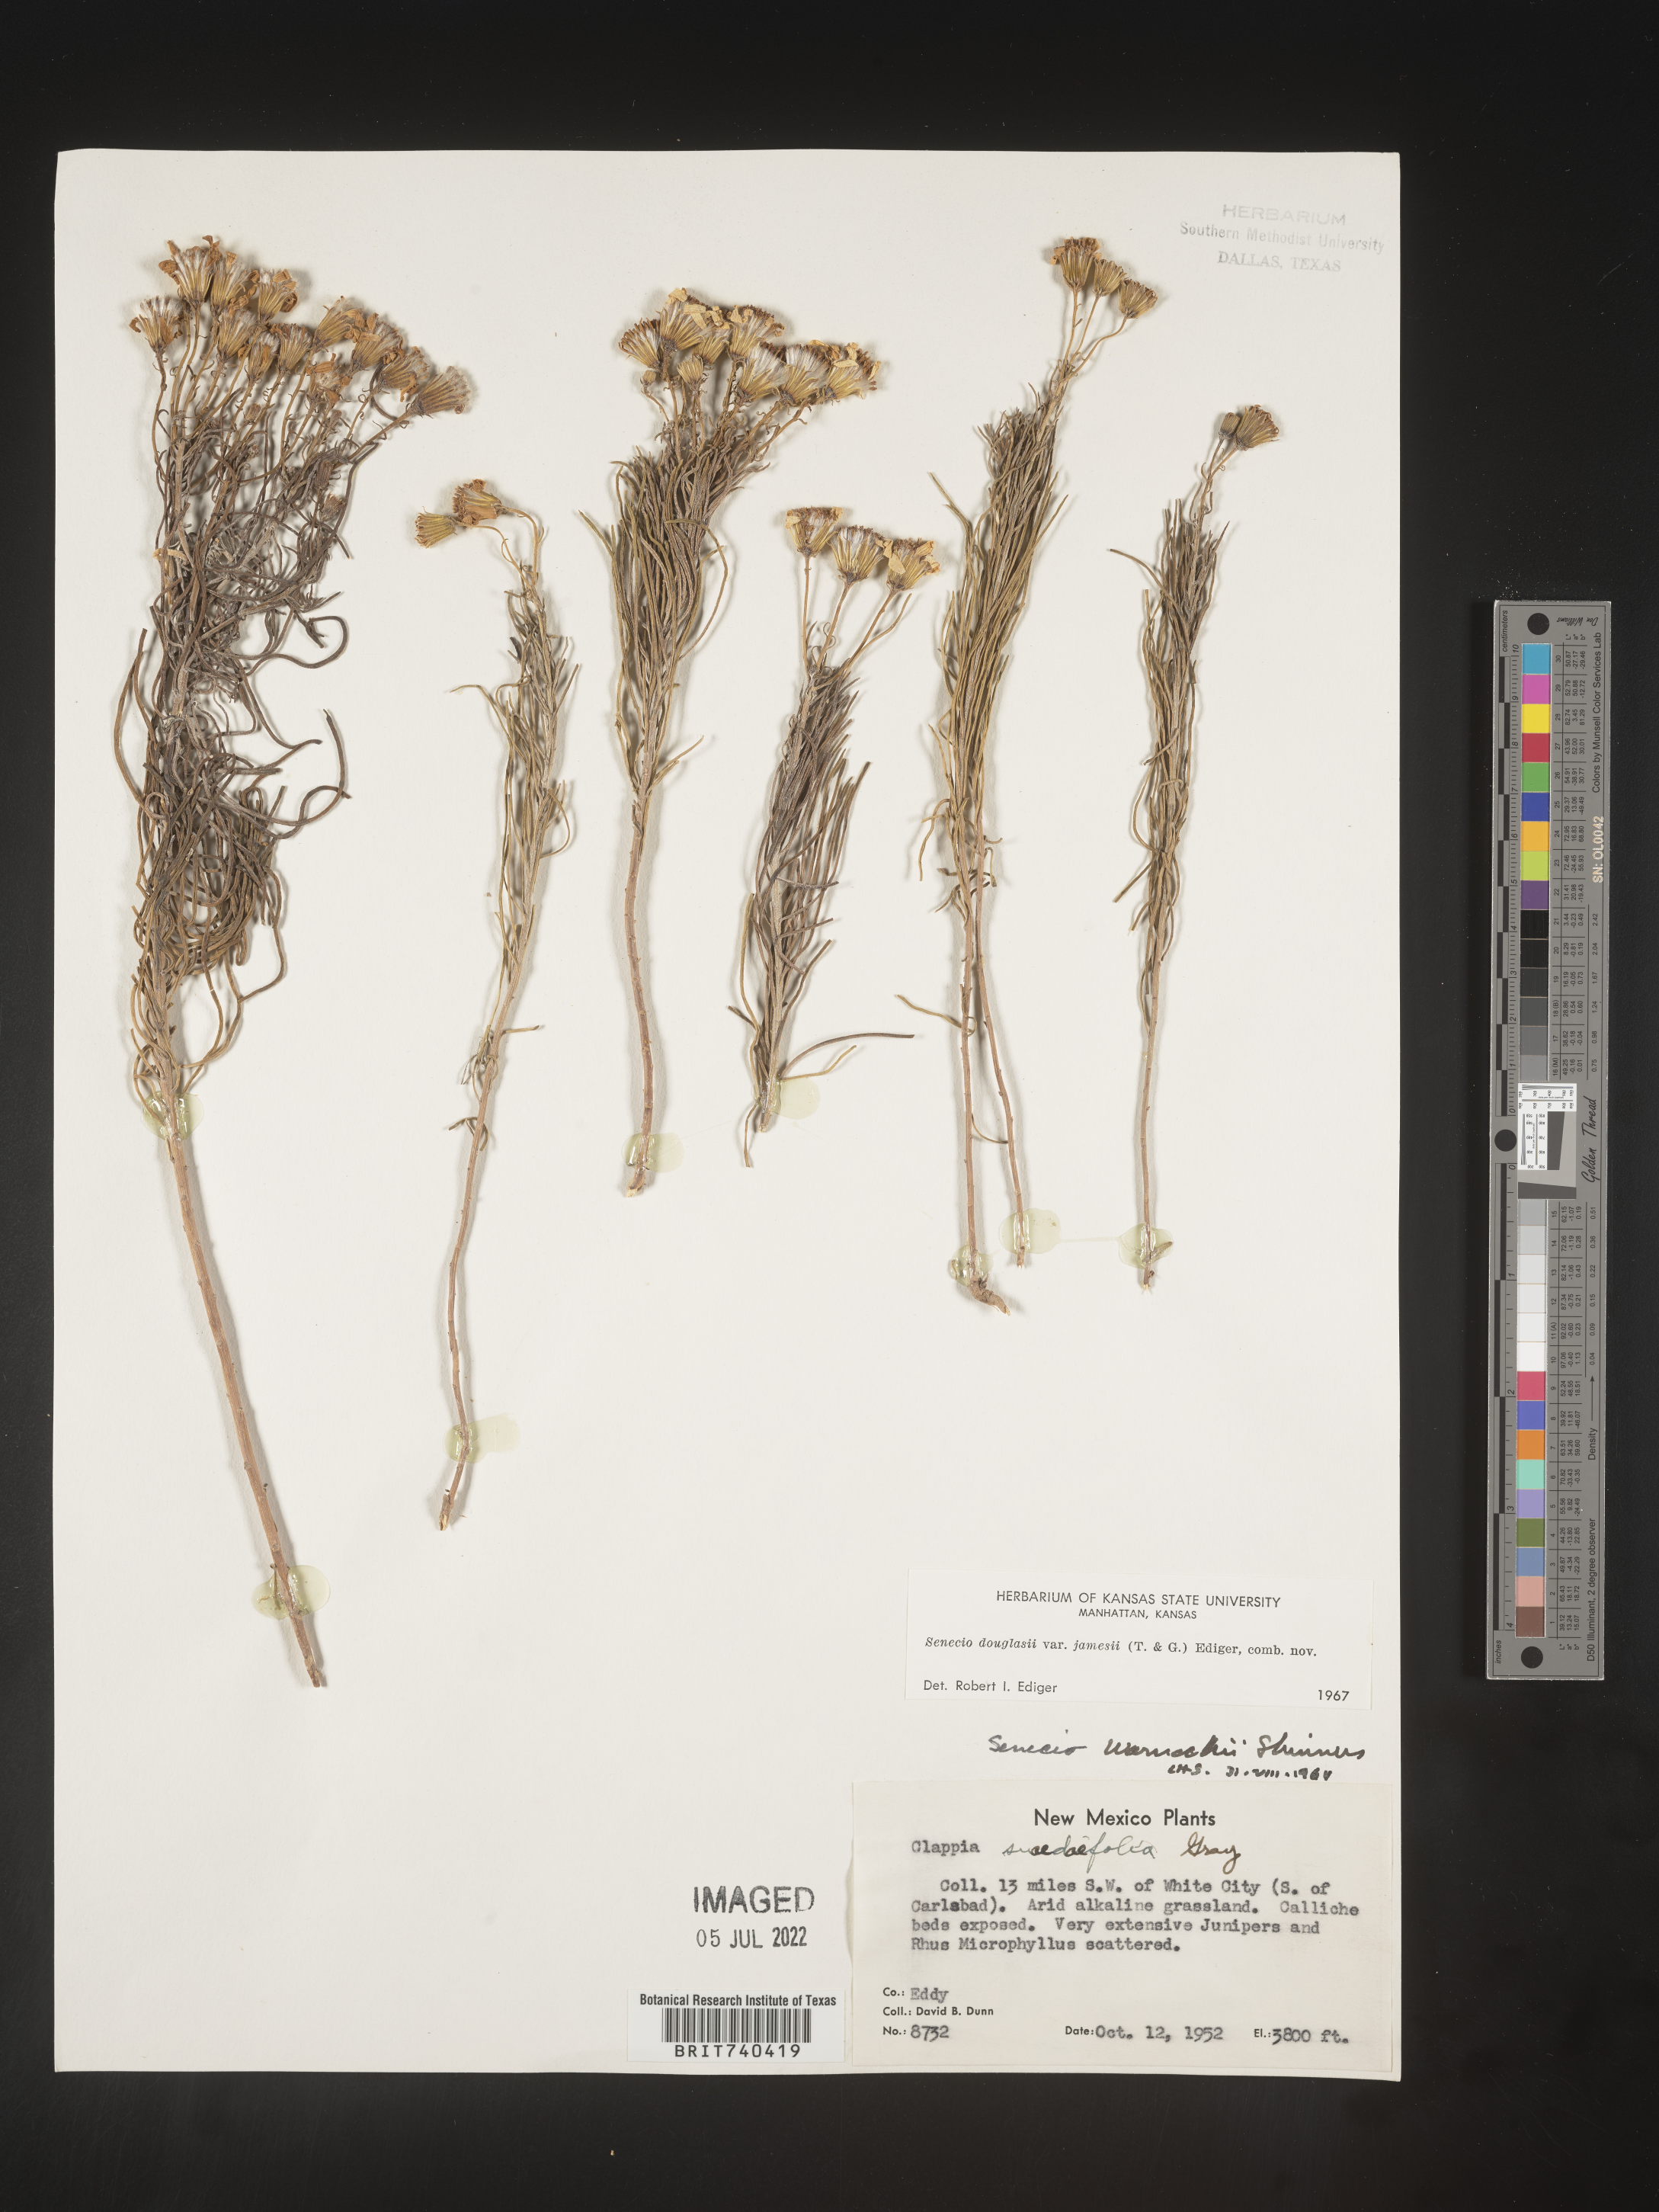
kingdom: Plantae
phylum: Tracheophyta
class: Magnoliopsida
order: Asterales
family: Asteraceae
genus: Senecio
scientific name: Senecio flaccidus
